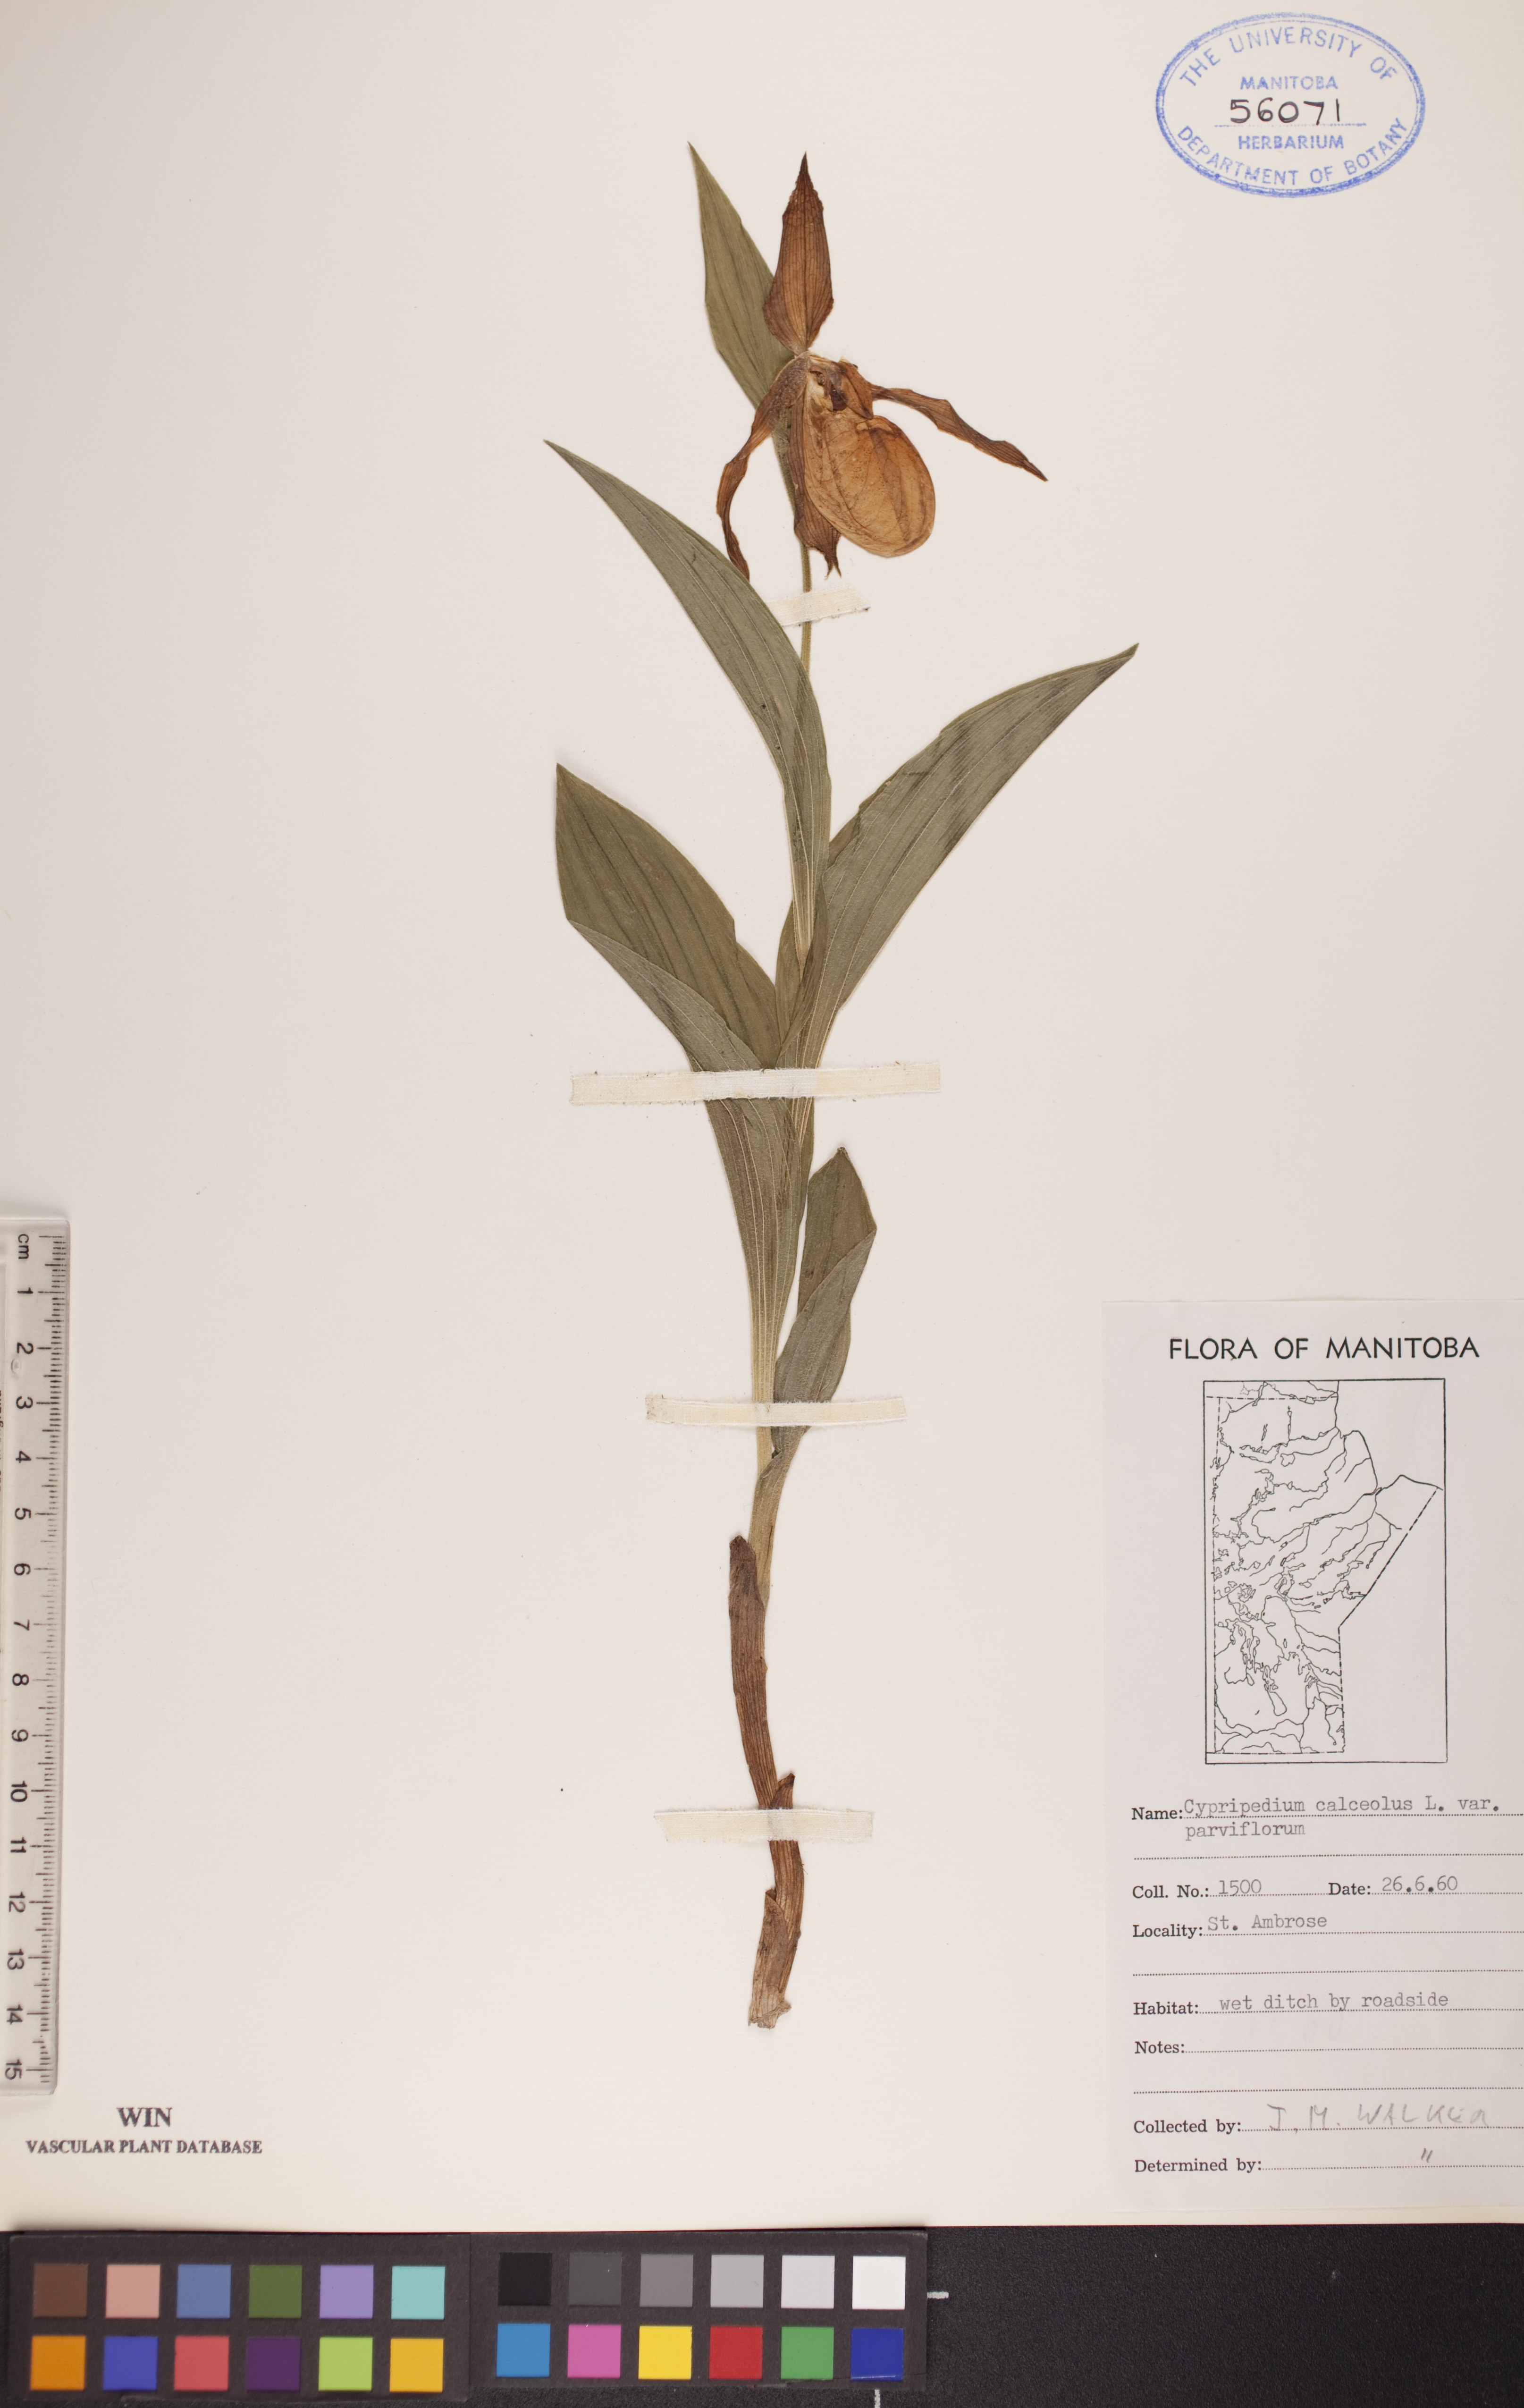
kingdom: Plantae
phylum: Tracheophyta
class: Liliopsida
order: Asparagales
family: Orchidaceae
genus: Cypripedium
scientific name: Cypripedium parviflorum
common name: American yellow lady's-slipper
